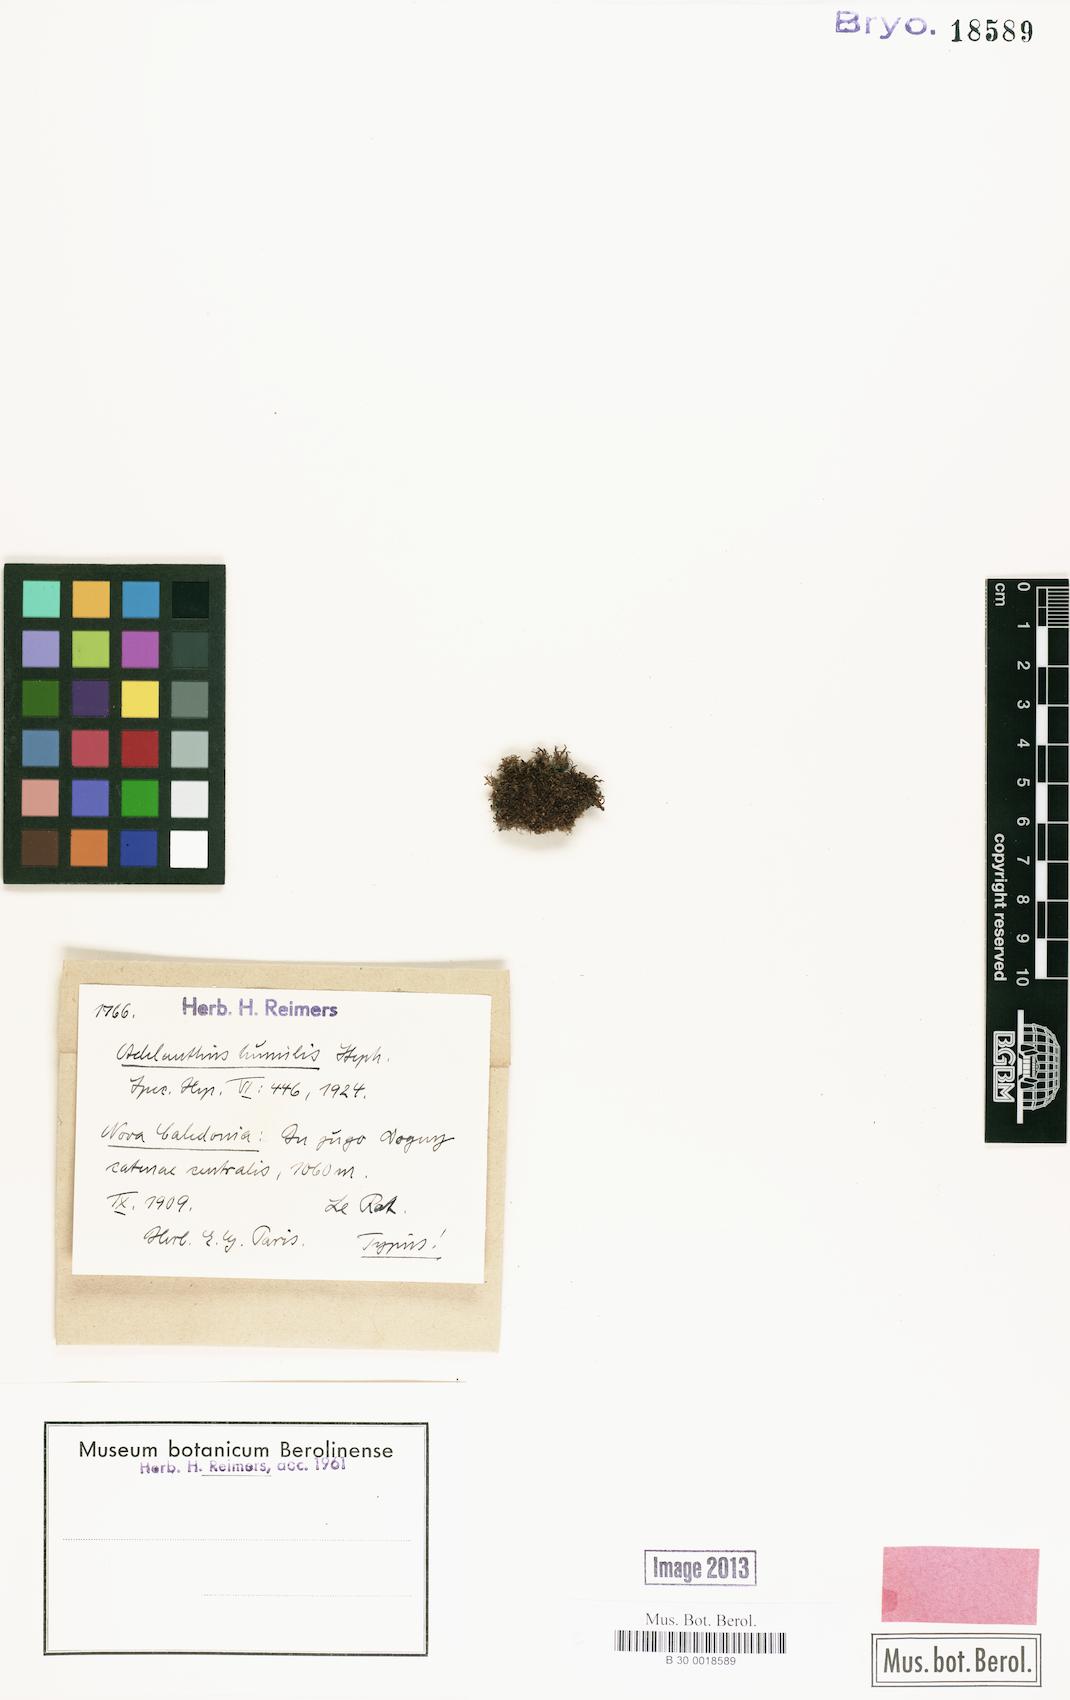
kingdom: Plantae
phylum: Marchantiophyta
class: Jungermanniopsida
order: Jungermanniales
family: Adelanthaceae
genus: Pseudomarsupidium
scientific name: Pseudomarsupidium piliferum
